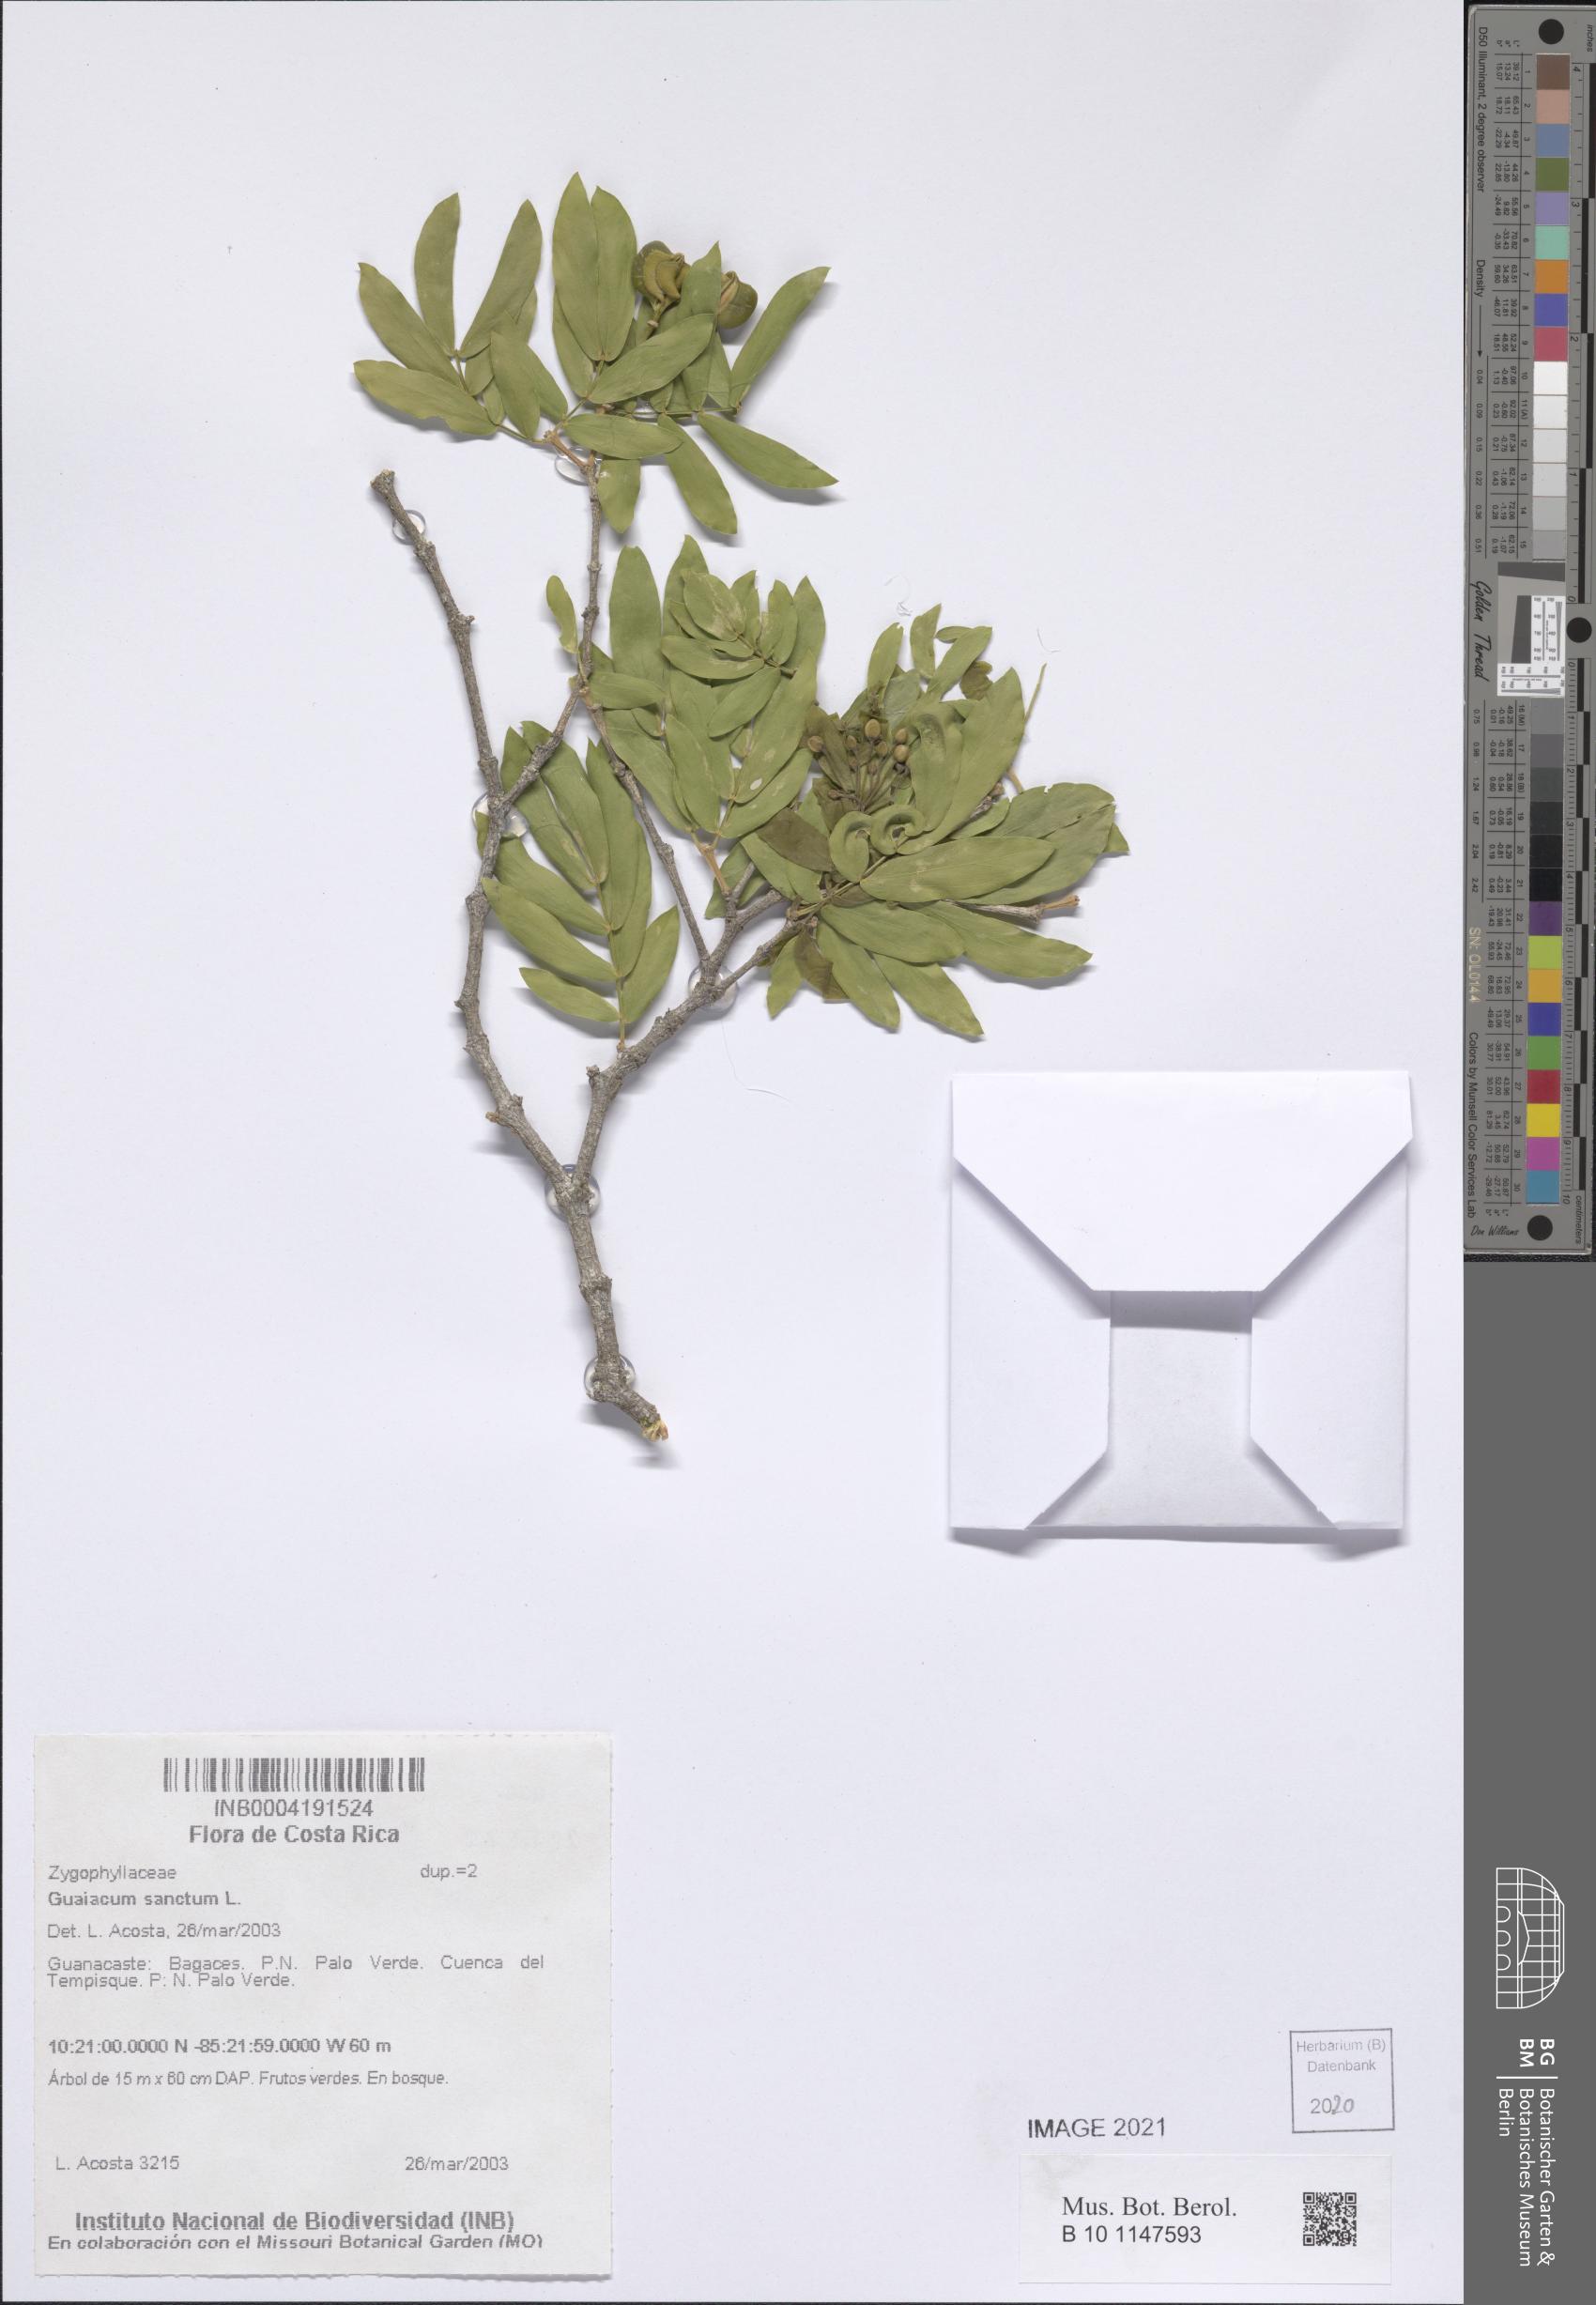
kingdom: Plantae
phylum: Tracheophyta
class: Magnoliopsida
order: Zygophyllales
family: Zygophyllaceae
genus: Guaiacum
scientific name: Guaiacum sanctum
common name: Holywood
